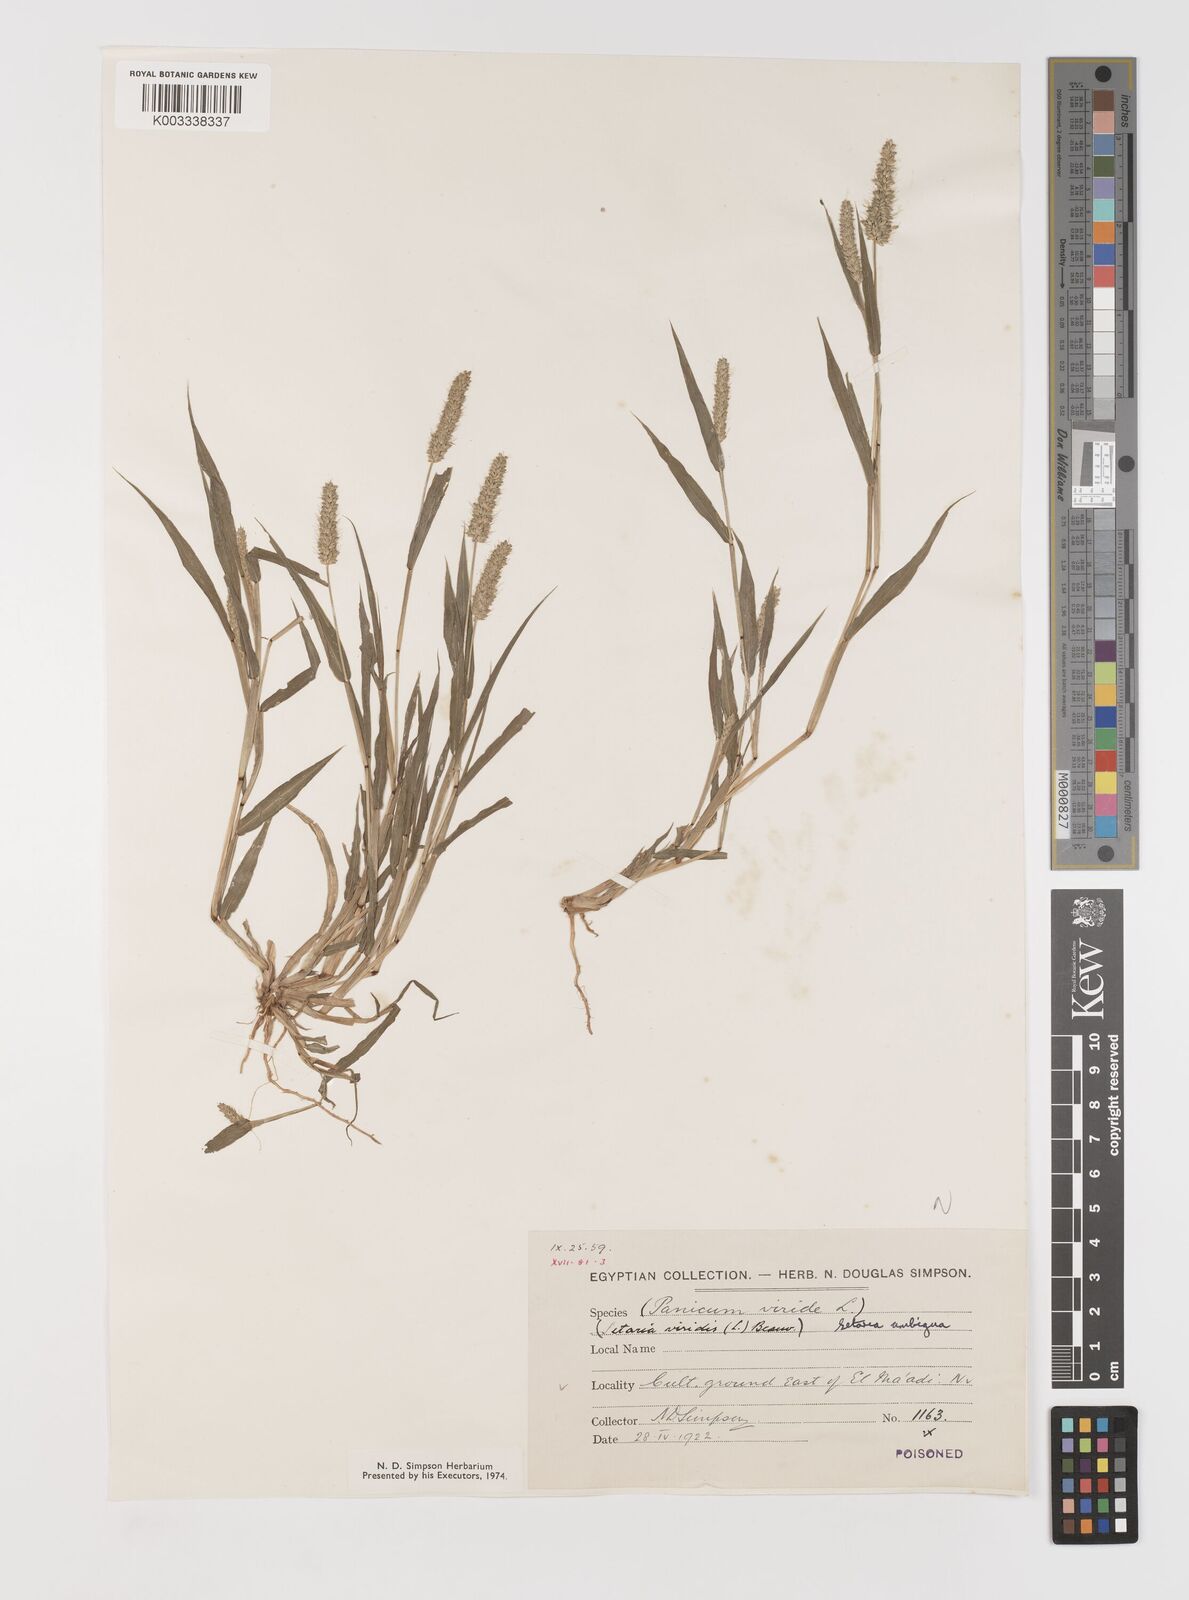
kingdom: Plantae
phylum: Tracheophyta
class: Liliopsida
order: Poales
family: Poaceae
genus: Setaria
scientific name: Setaria verticillata
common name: Hooked bristlegrass
